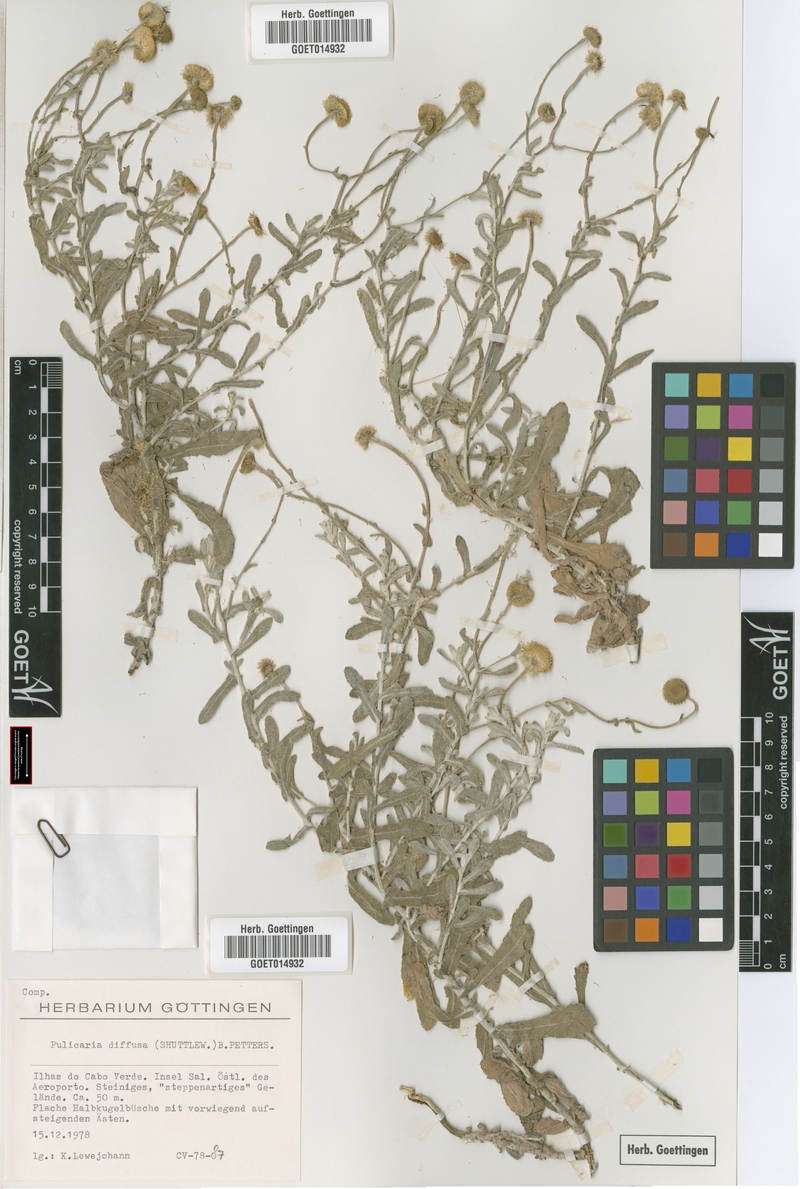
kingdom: Plantae
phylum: Tracheophyta
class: Magnoliopsida
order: Asterales
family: Asteraceae
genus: Pulicaria
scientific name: Pulicaria diffusa
